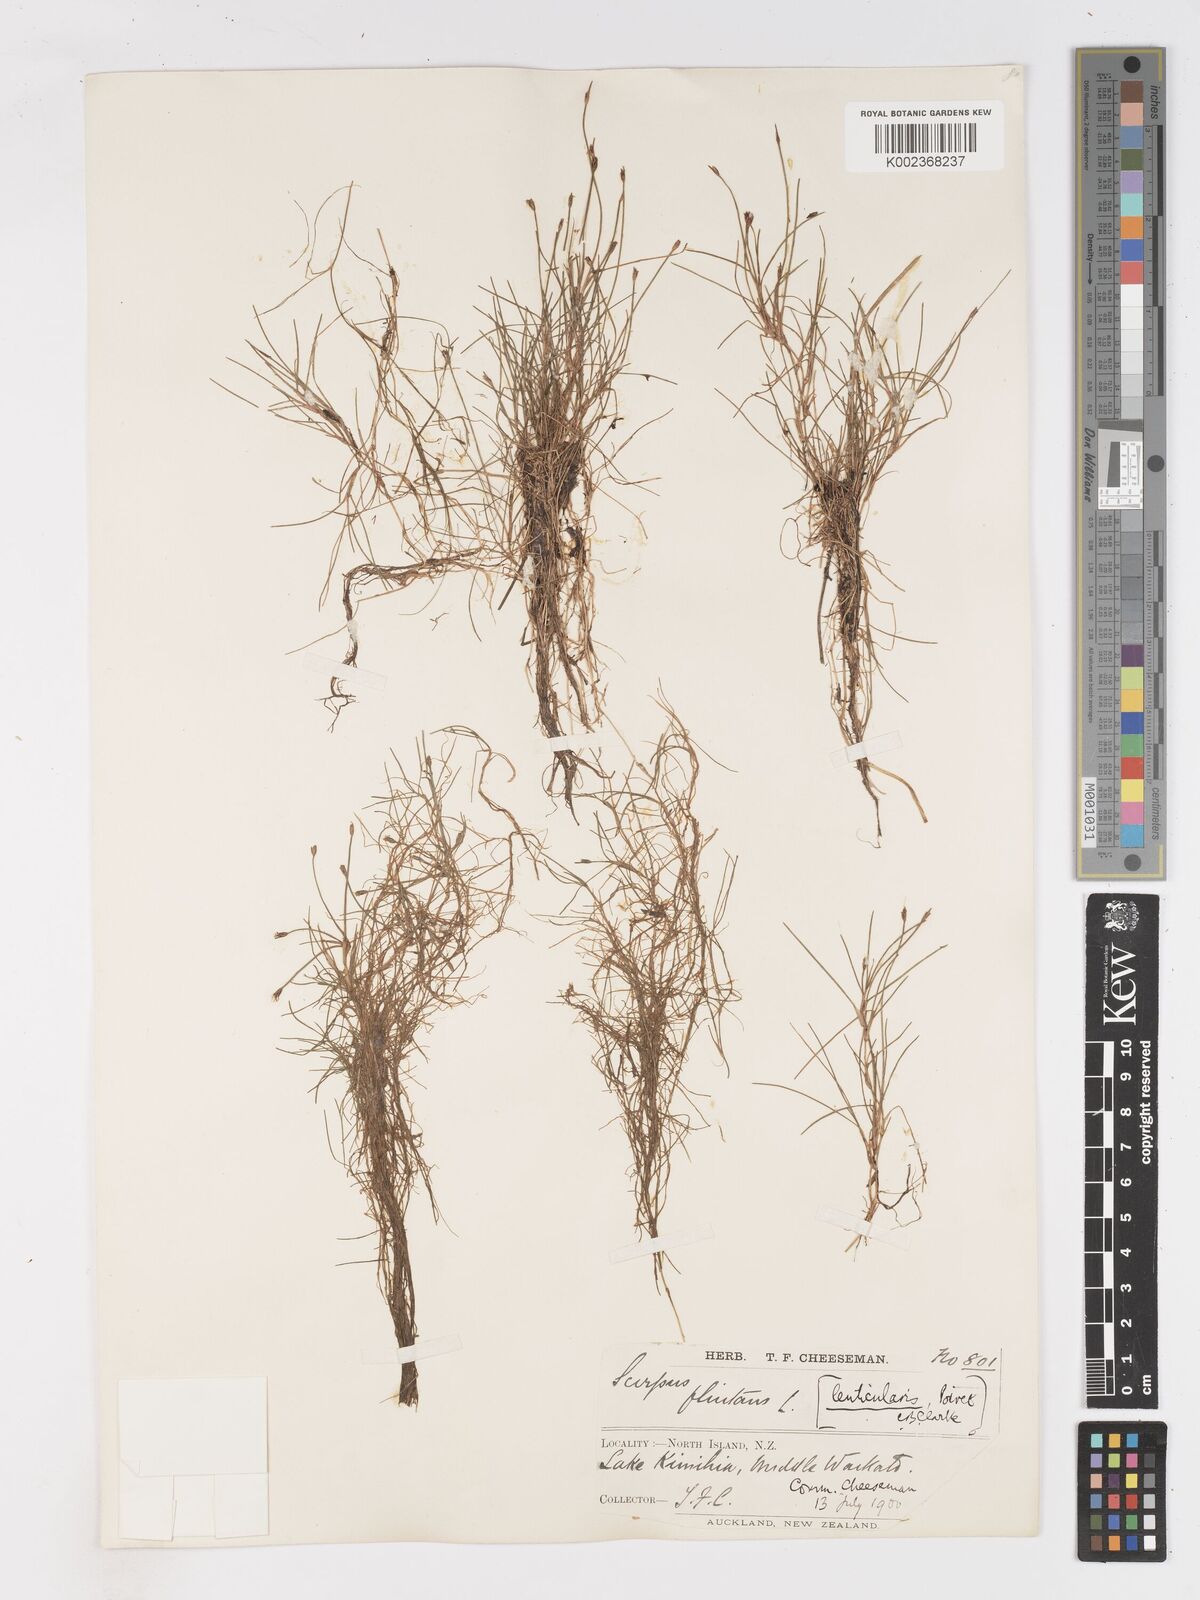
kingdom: Plantae
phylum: Tracheophyta
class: Liliopsida
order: Poales
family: Cyperaceae
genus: Isolepis
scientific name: Isolepis fluitans
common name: Floating club-rush
